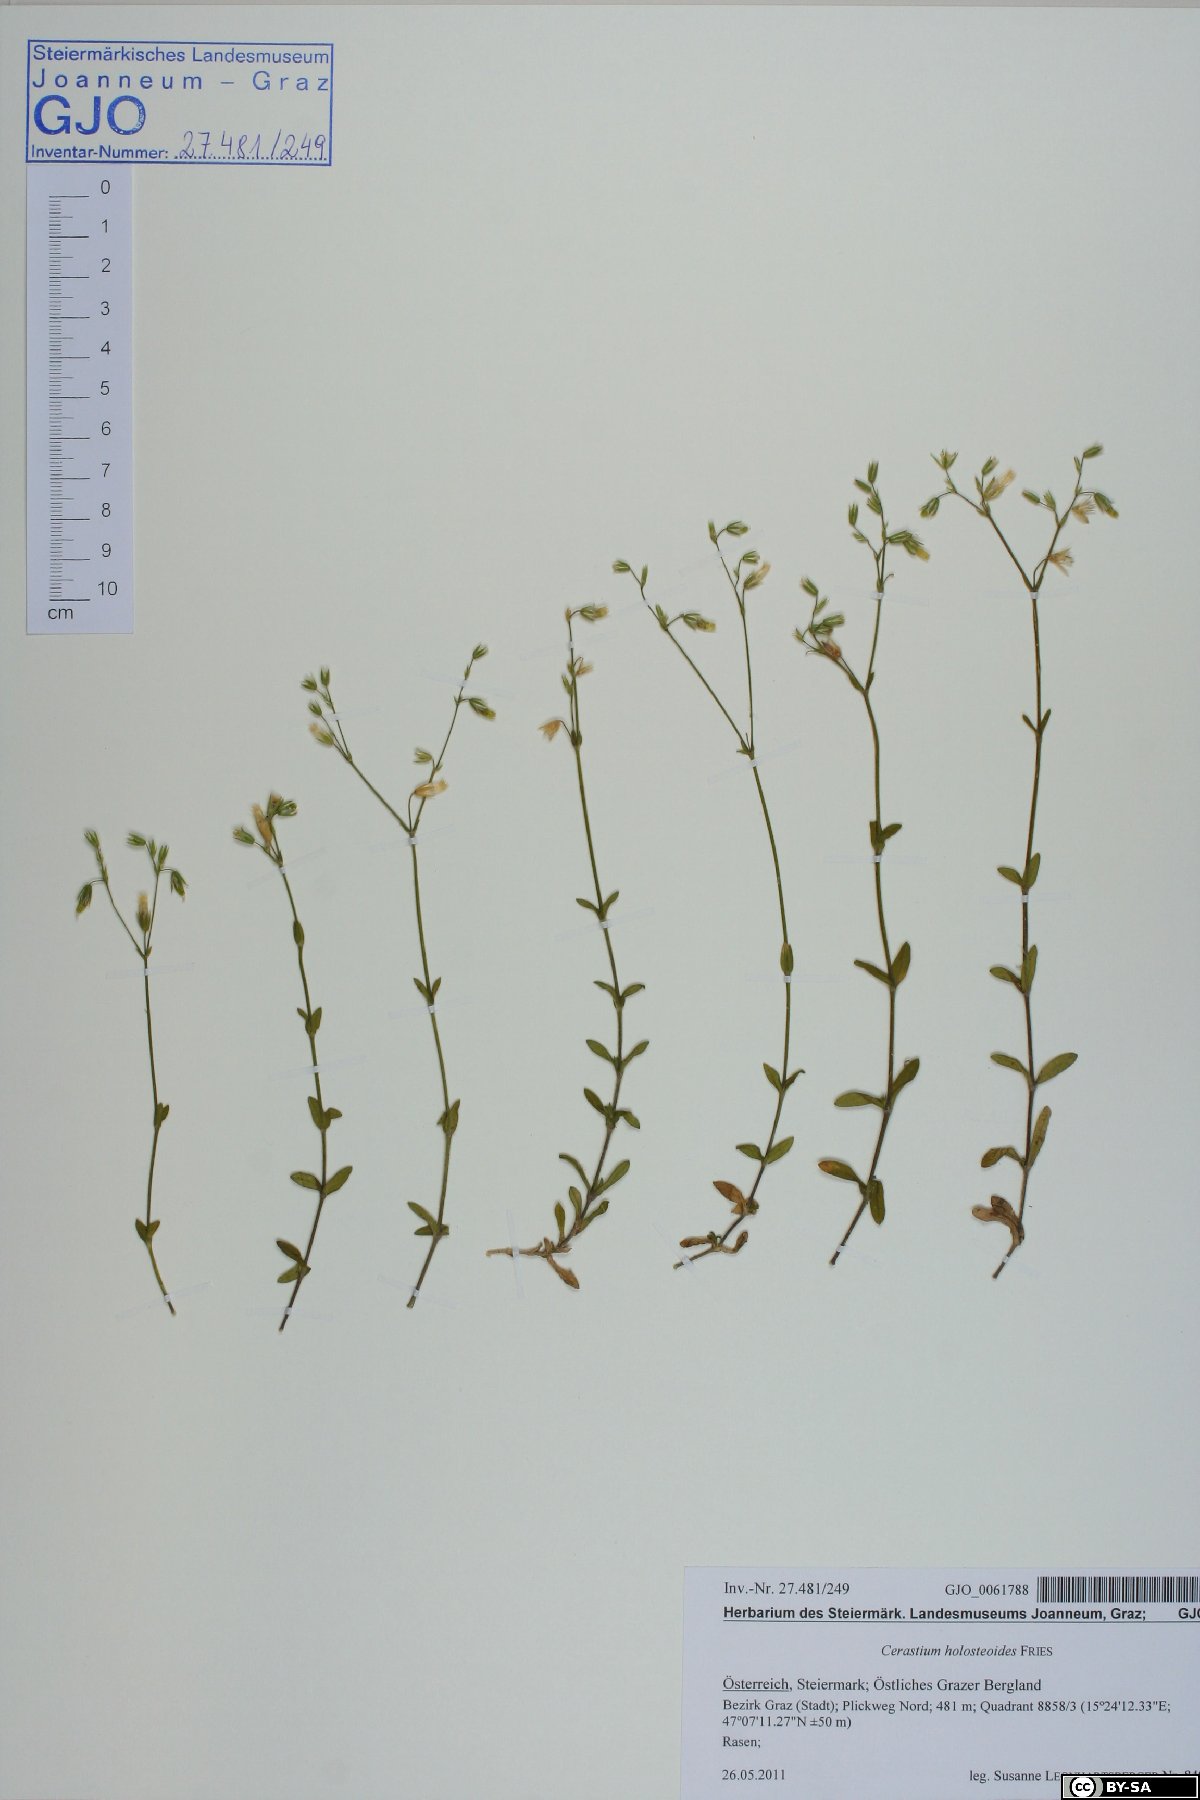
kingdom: Plantae
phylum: Tracheophyta
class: Magnoliopsida
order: Caryophyllales
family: Caryophyllaceae
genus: Cerastium
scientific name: Cerastium holosteoides
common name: Big chickweed
